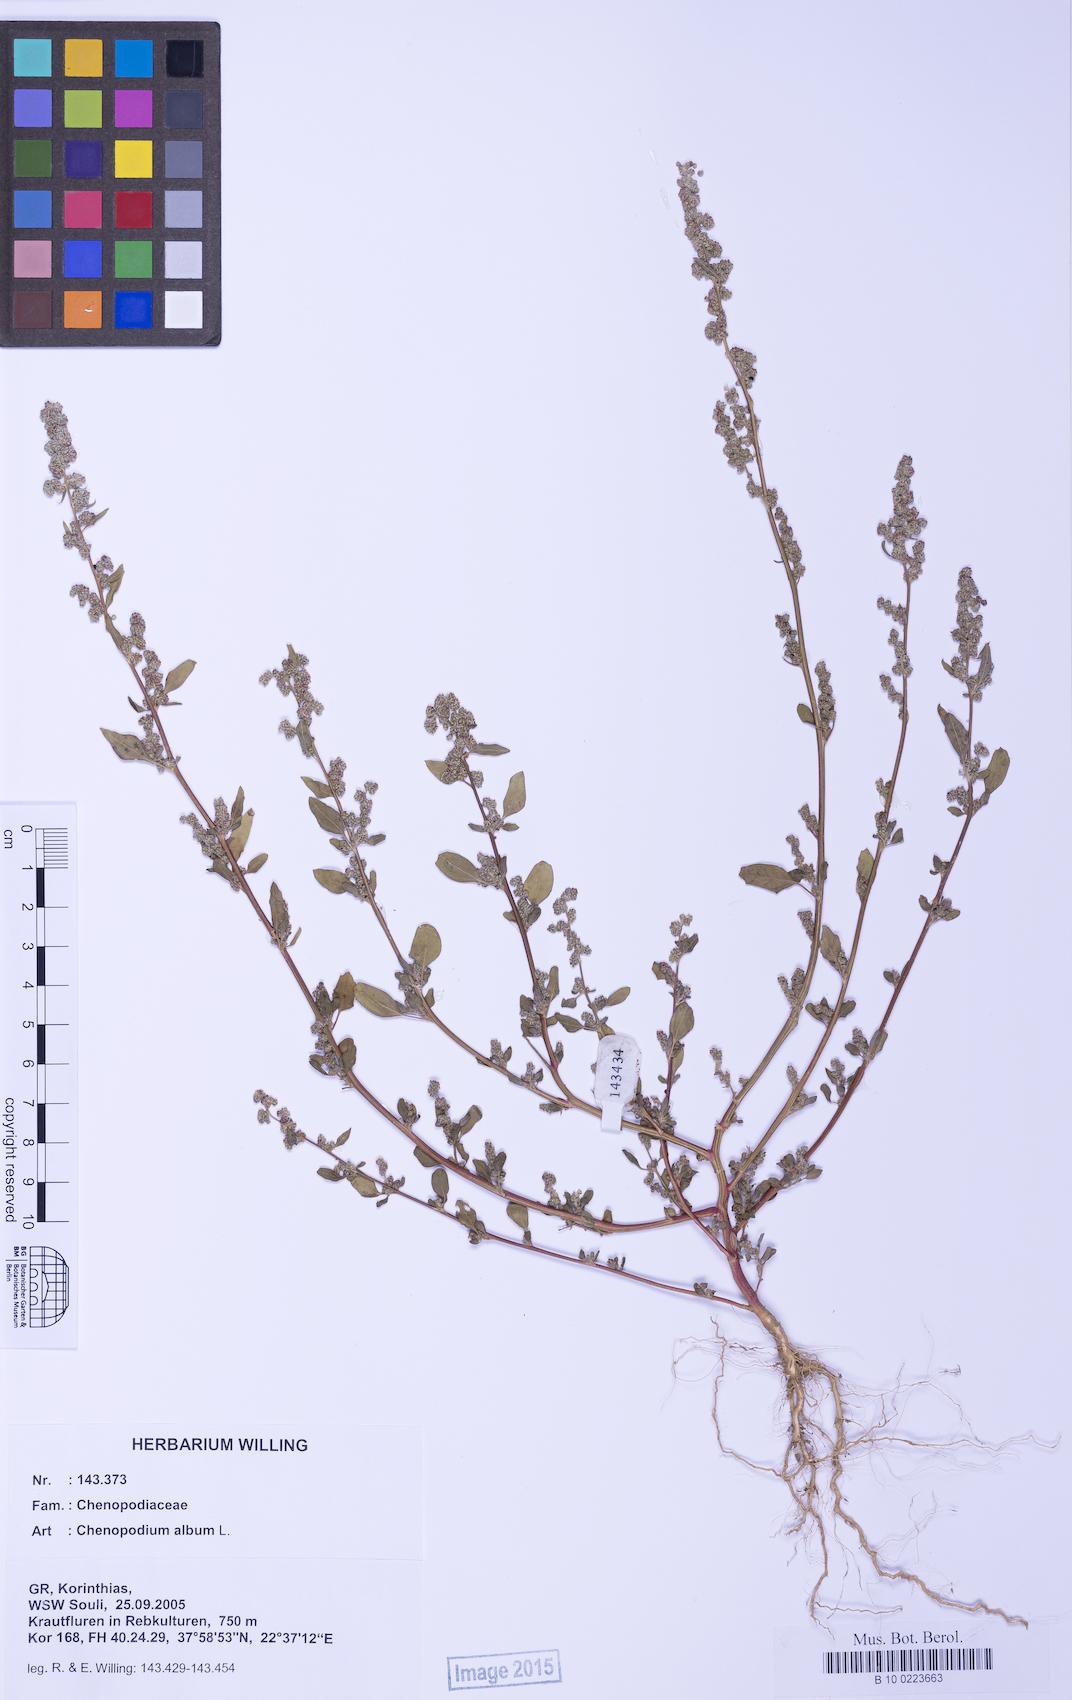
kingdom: Plantae
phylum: Tracheophyta
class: Magnoliopsida
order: Caryophyllales
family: Amaranthaceae
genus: Chenopodium
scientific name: Chenopodium album
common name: Fat-hen
